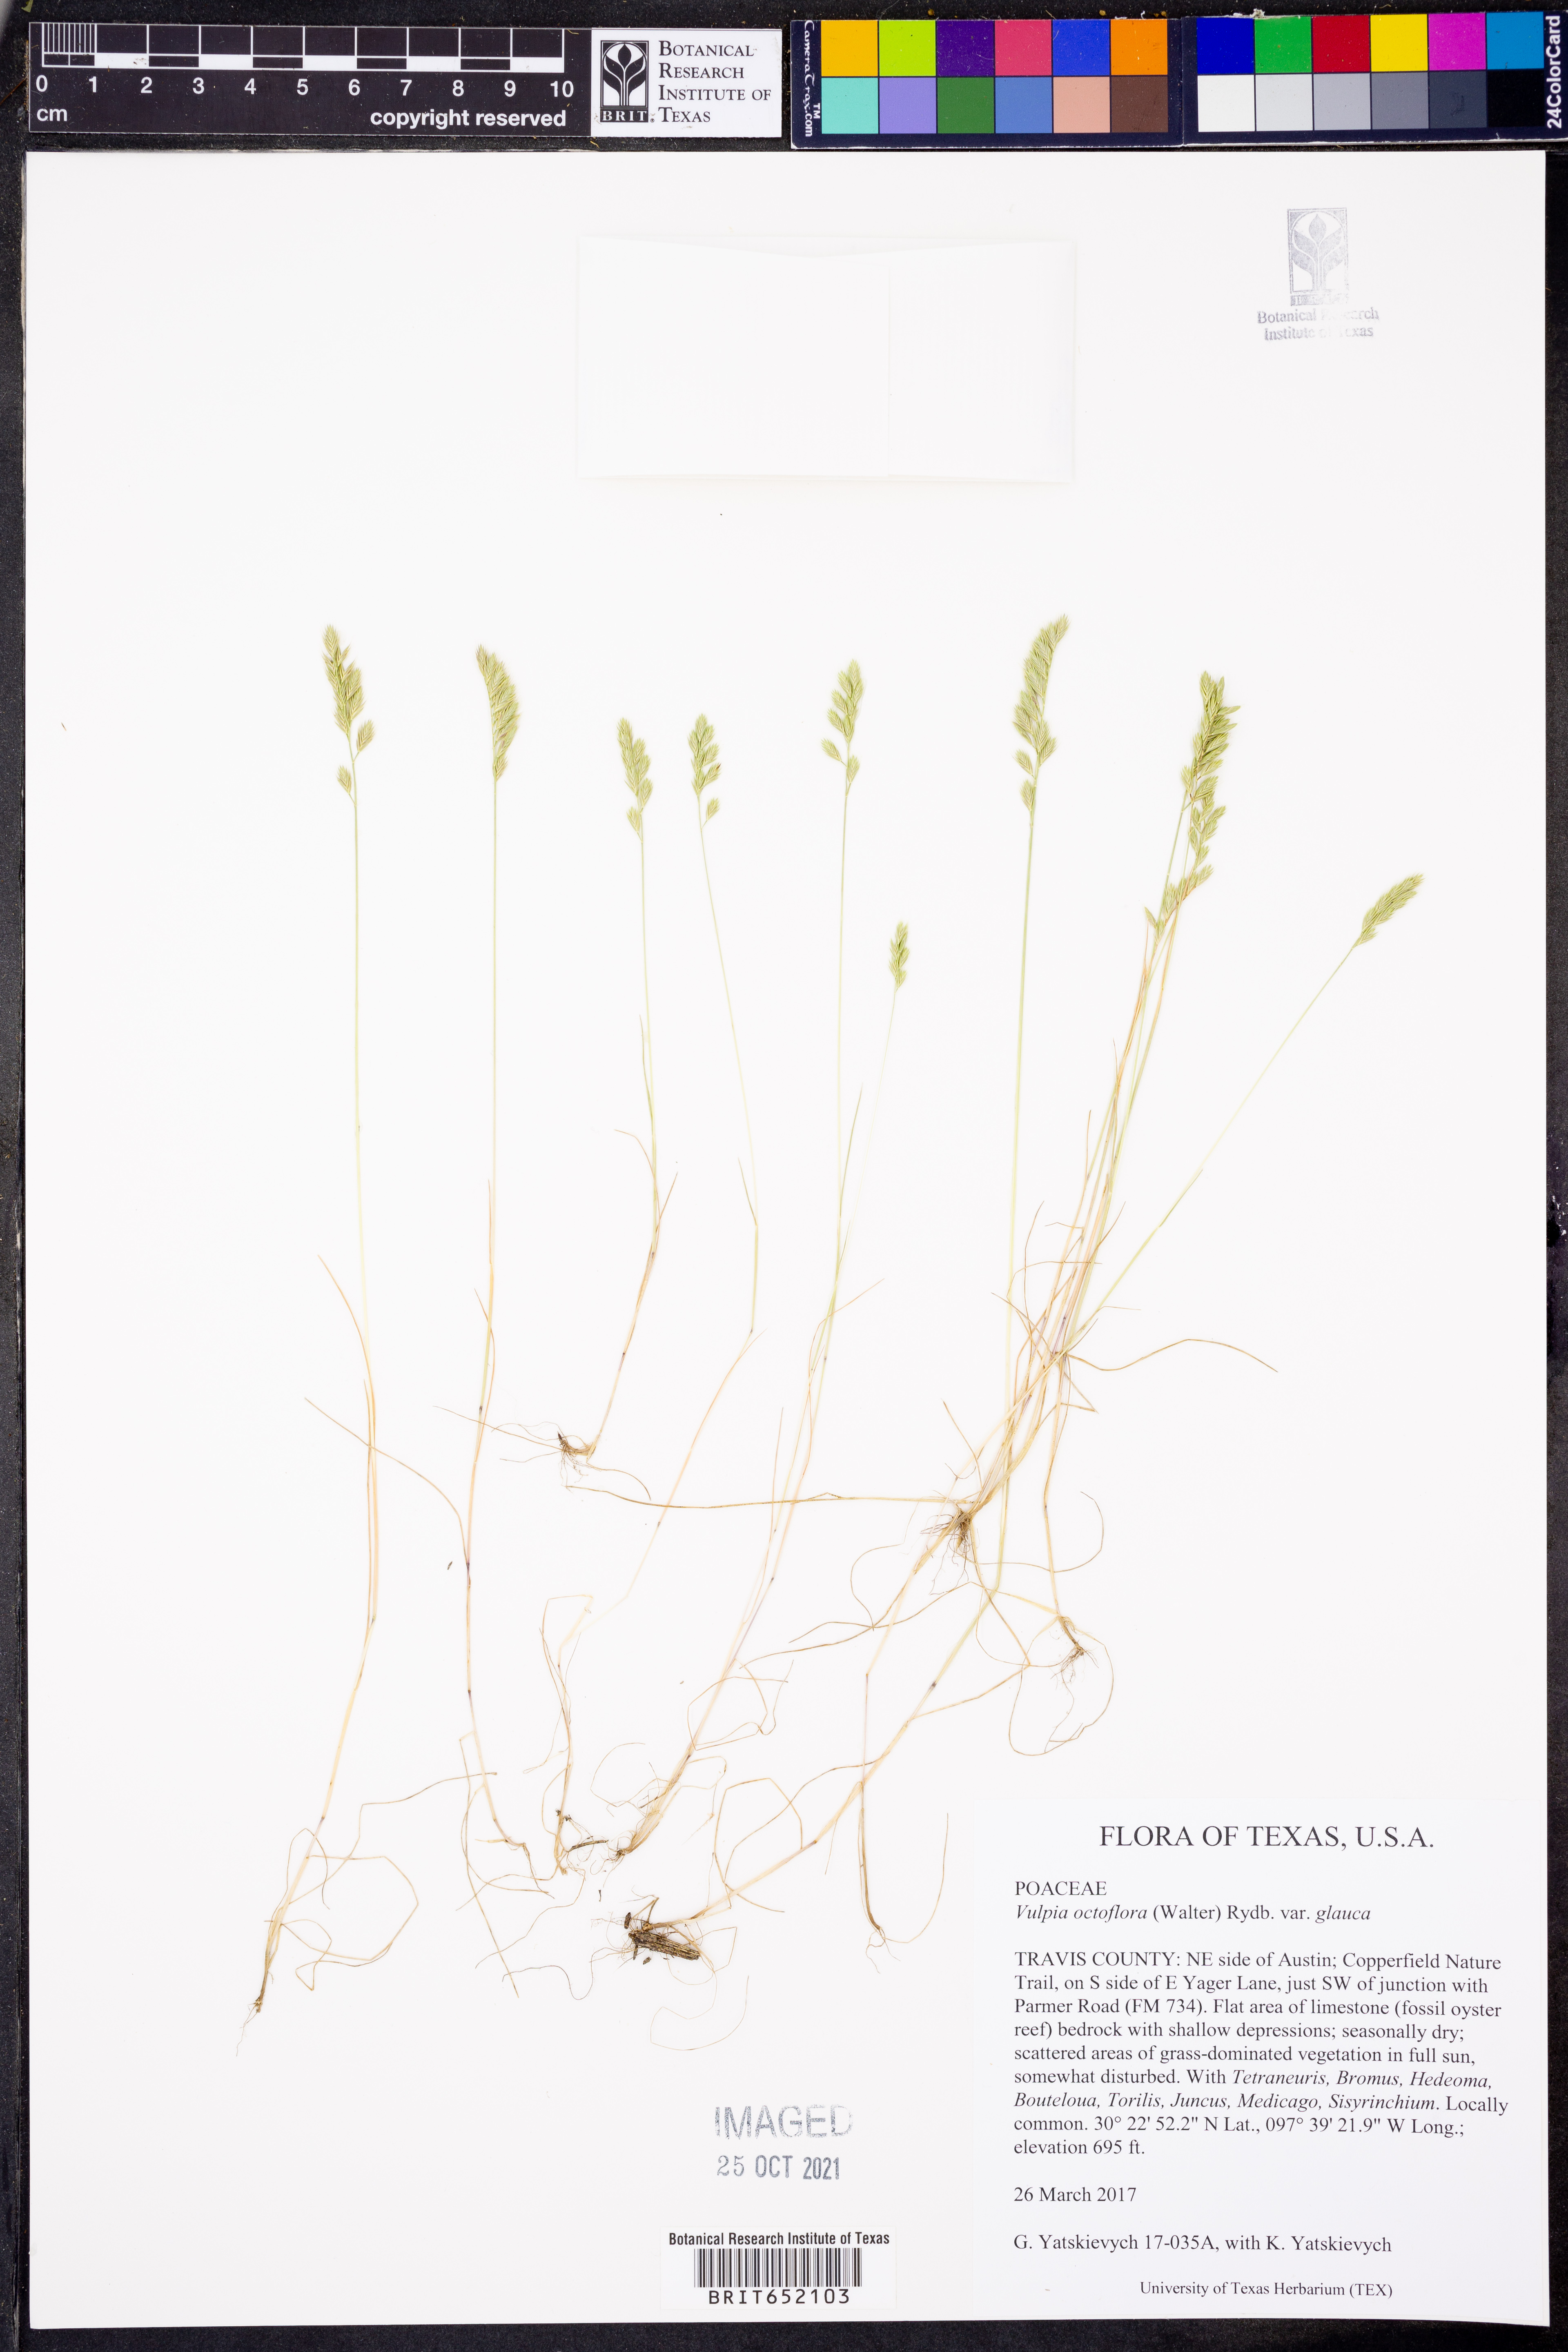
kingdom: Plantae
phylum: Tracheophyta
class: Liliopsida
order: Poales
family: Poaceae
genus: Festuca
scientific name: Festuca octoflora
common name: Sixweeks grass
